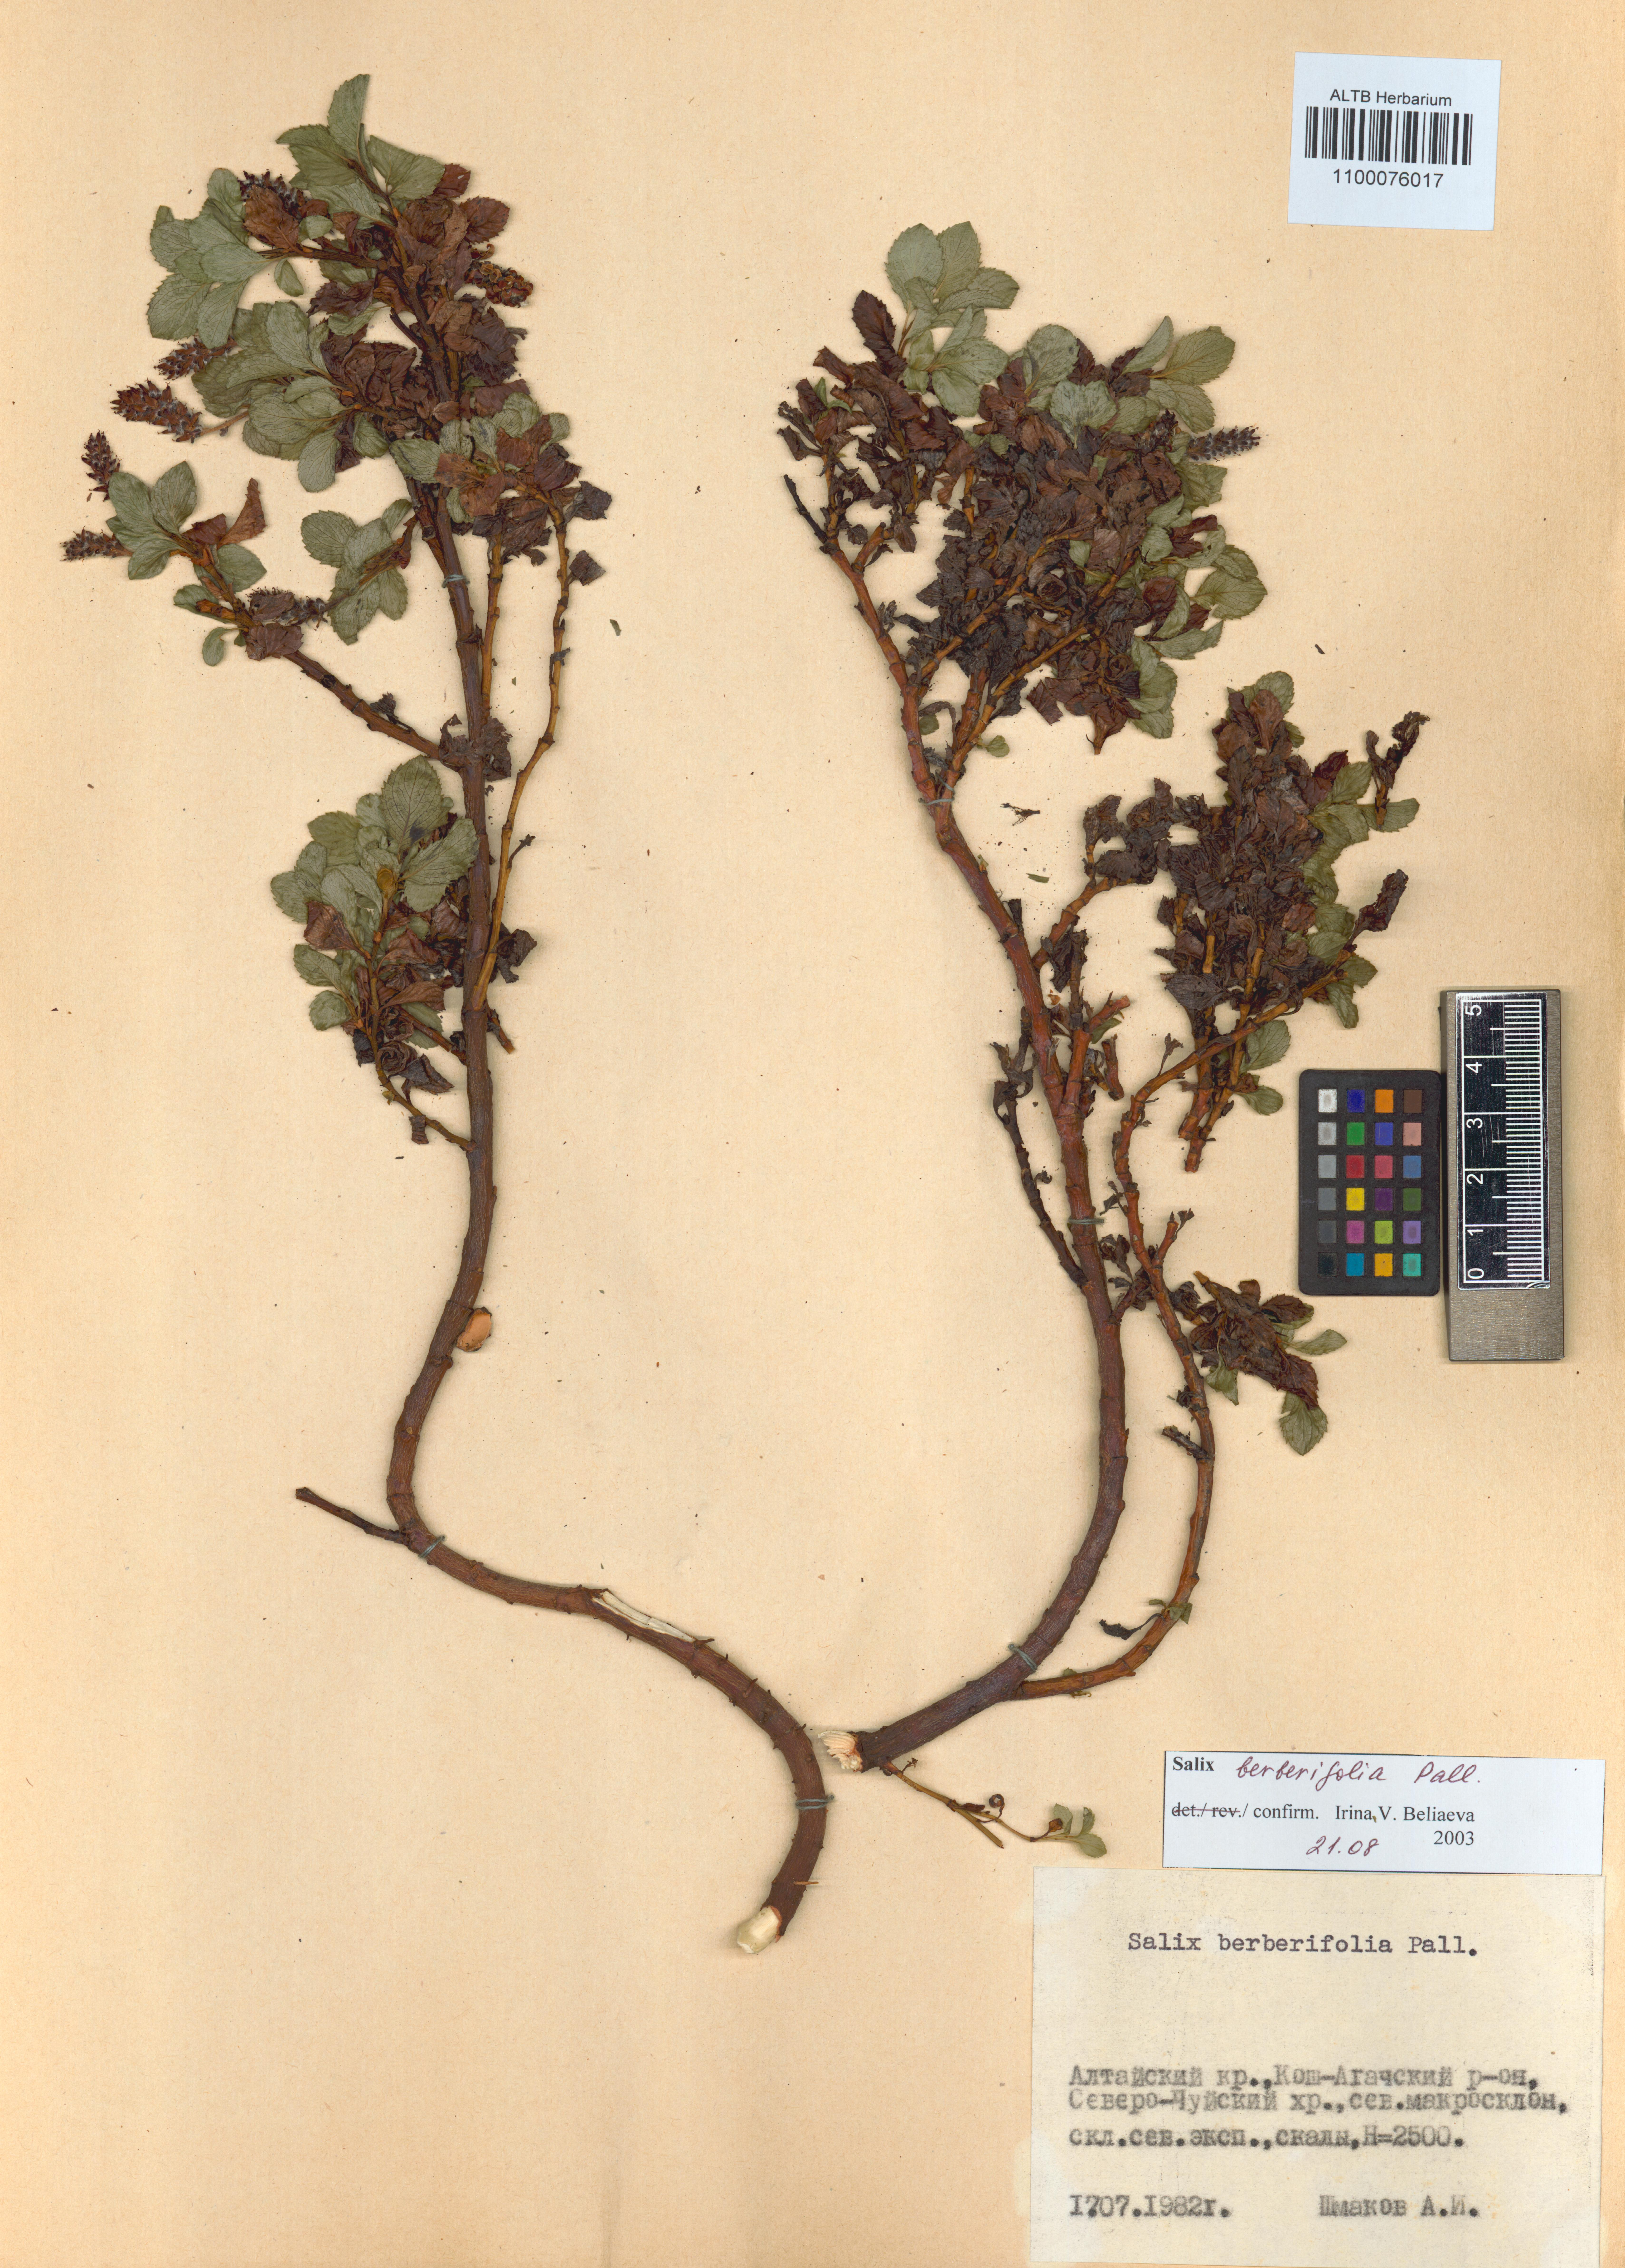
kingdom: Plantae
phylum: Tracheophyta
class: Magnoliopsida
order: Malpighiales
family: Salicaceae
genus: Salix
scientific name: Salix berberifolia
